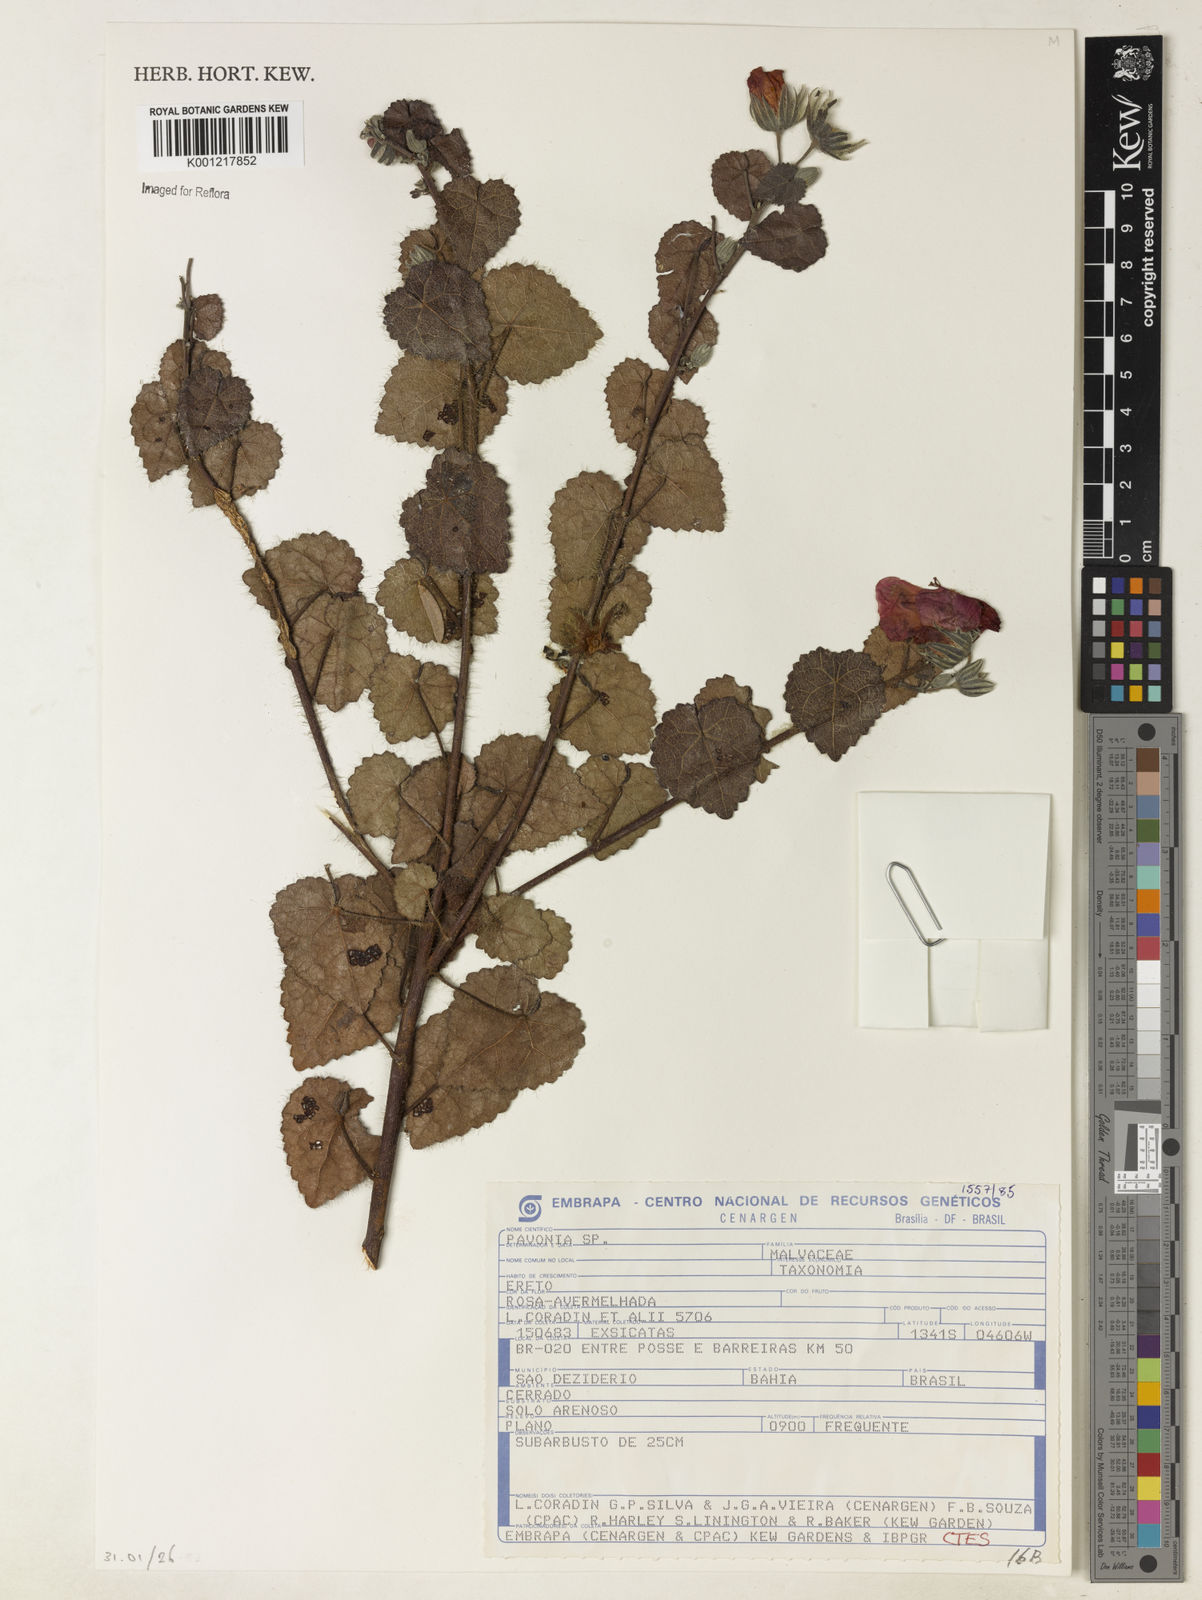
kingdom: Plantae
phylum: Tracheophyta
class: Magnoliopsida
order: Malvales
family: Malvaceae
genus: Pavonia
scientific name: Pavonia
